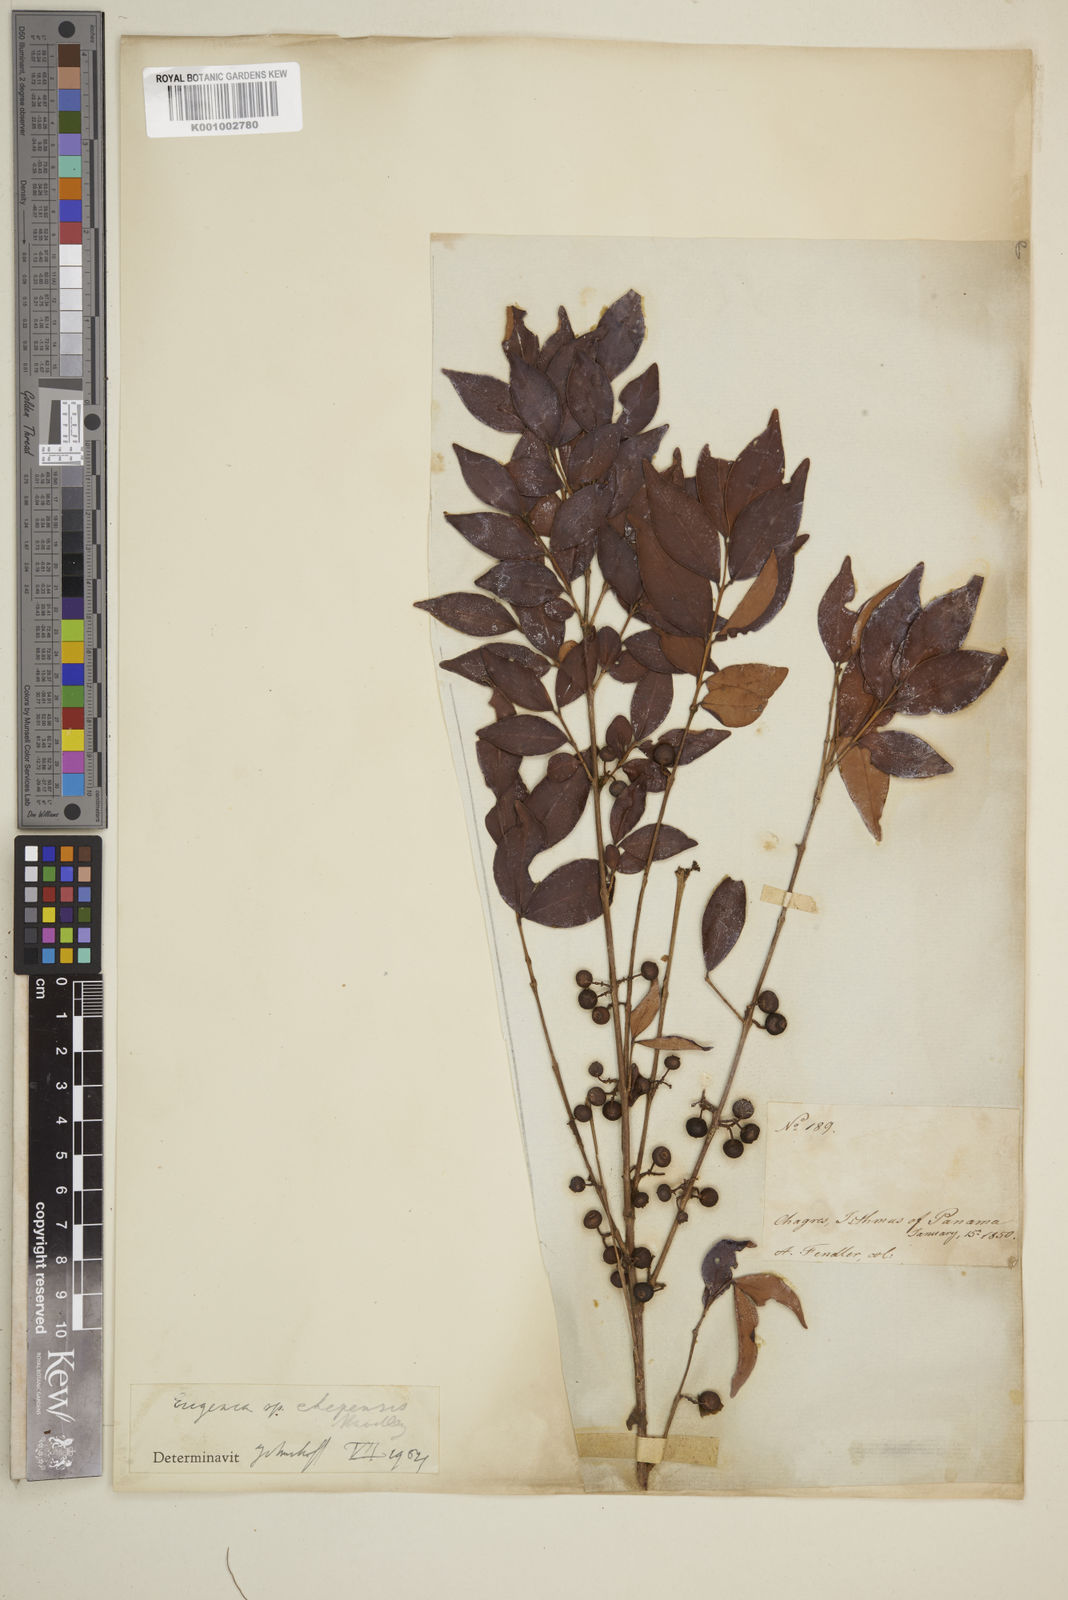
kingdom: Plantae
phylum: Tracheophyta
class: Magnoliopsida
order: Myrtales
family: Myrtaceae
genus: Eugenia
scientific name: Eugenia chepensis
